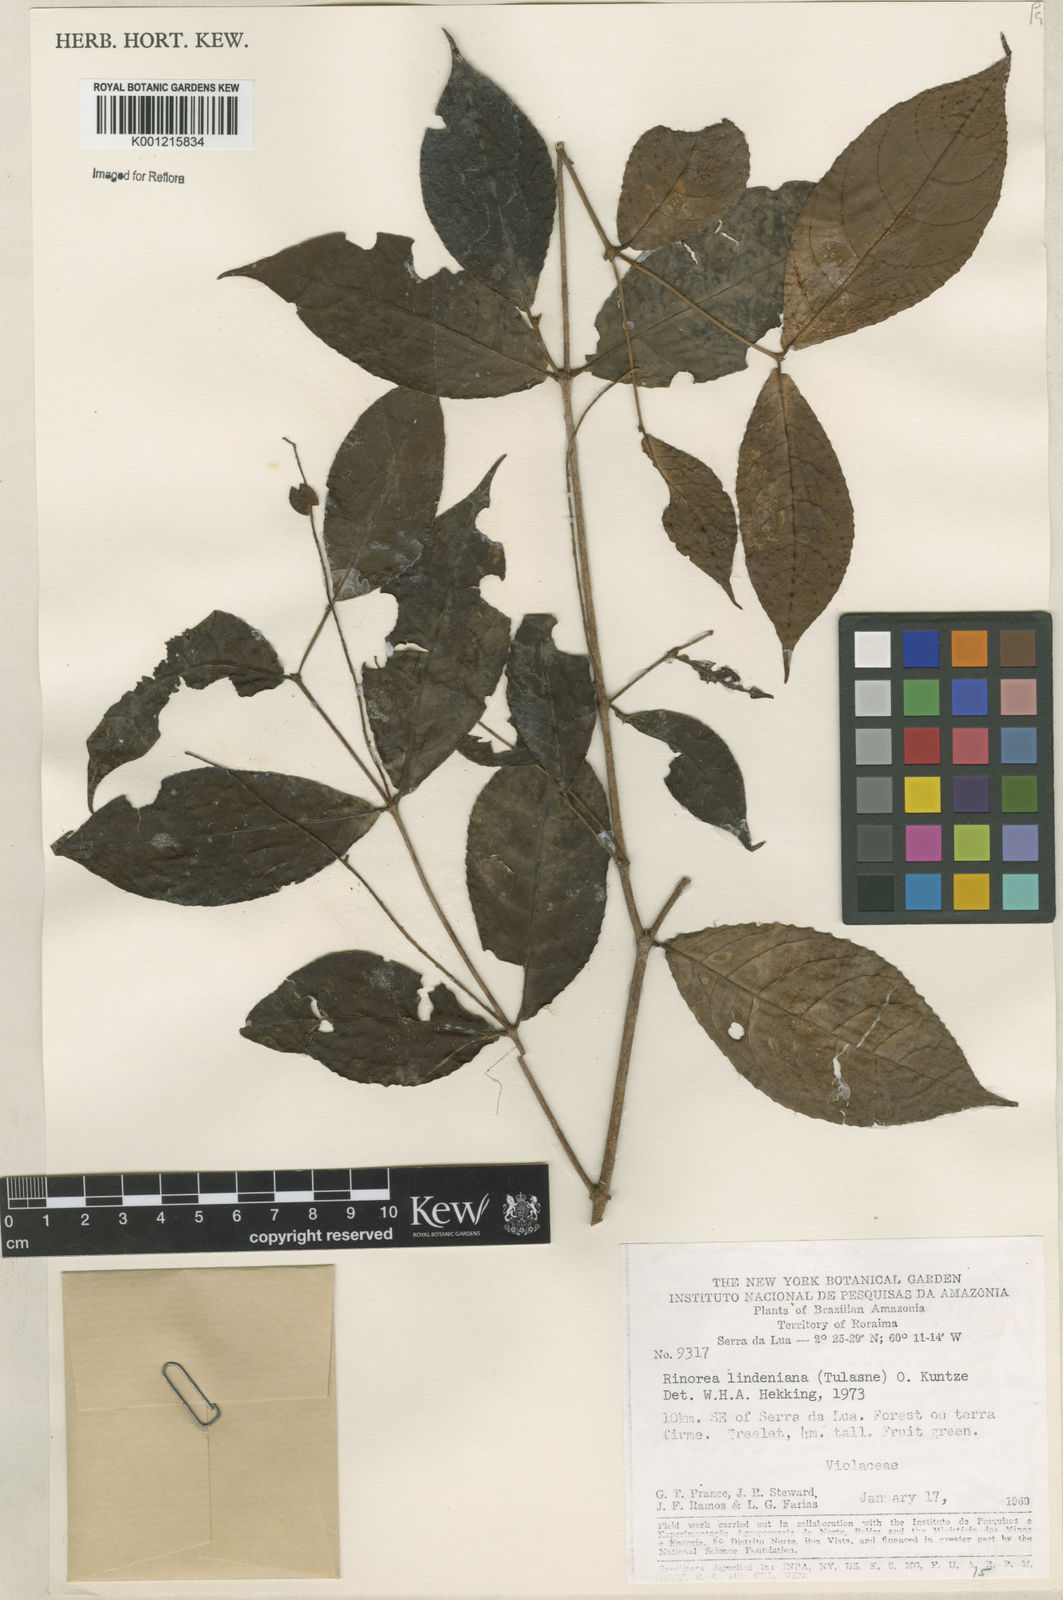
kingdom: Plantae
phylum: Tracheophyta
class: Magnoliopsida
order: Malpighiales
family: Violaceae
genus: Rinorea
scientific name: Rinorea lindeniana
